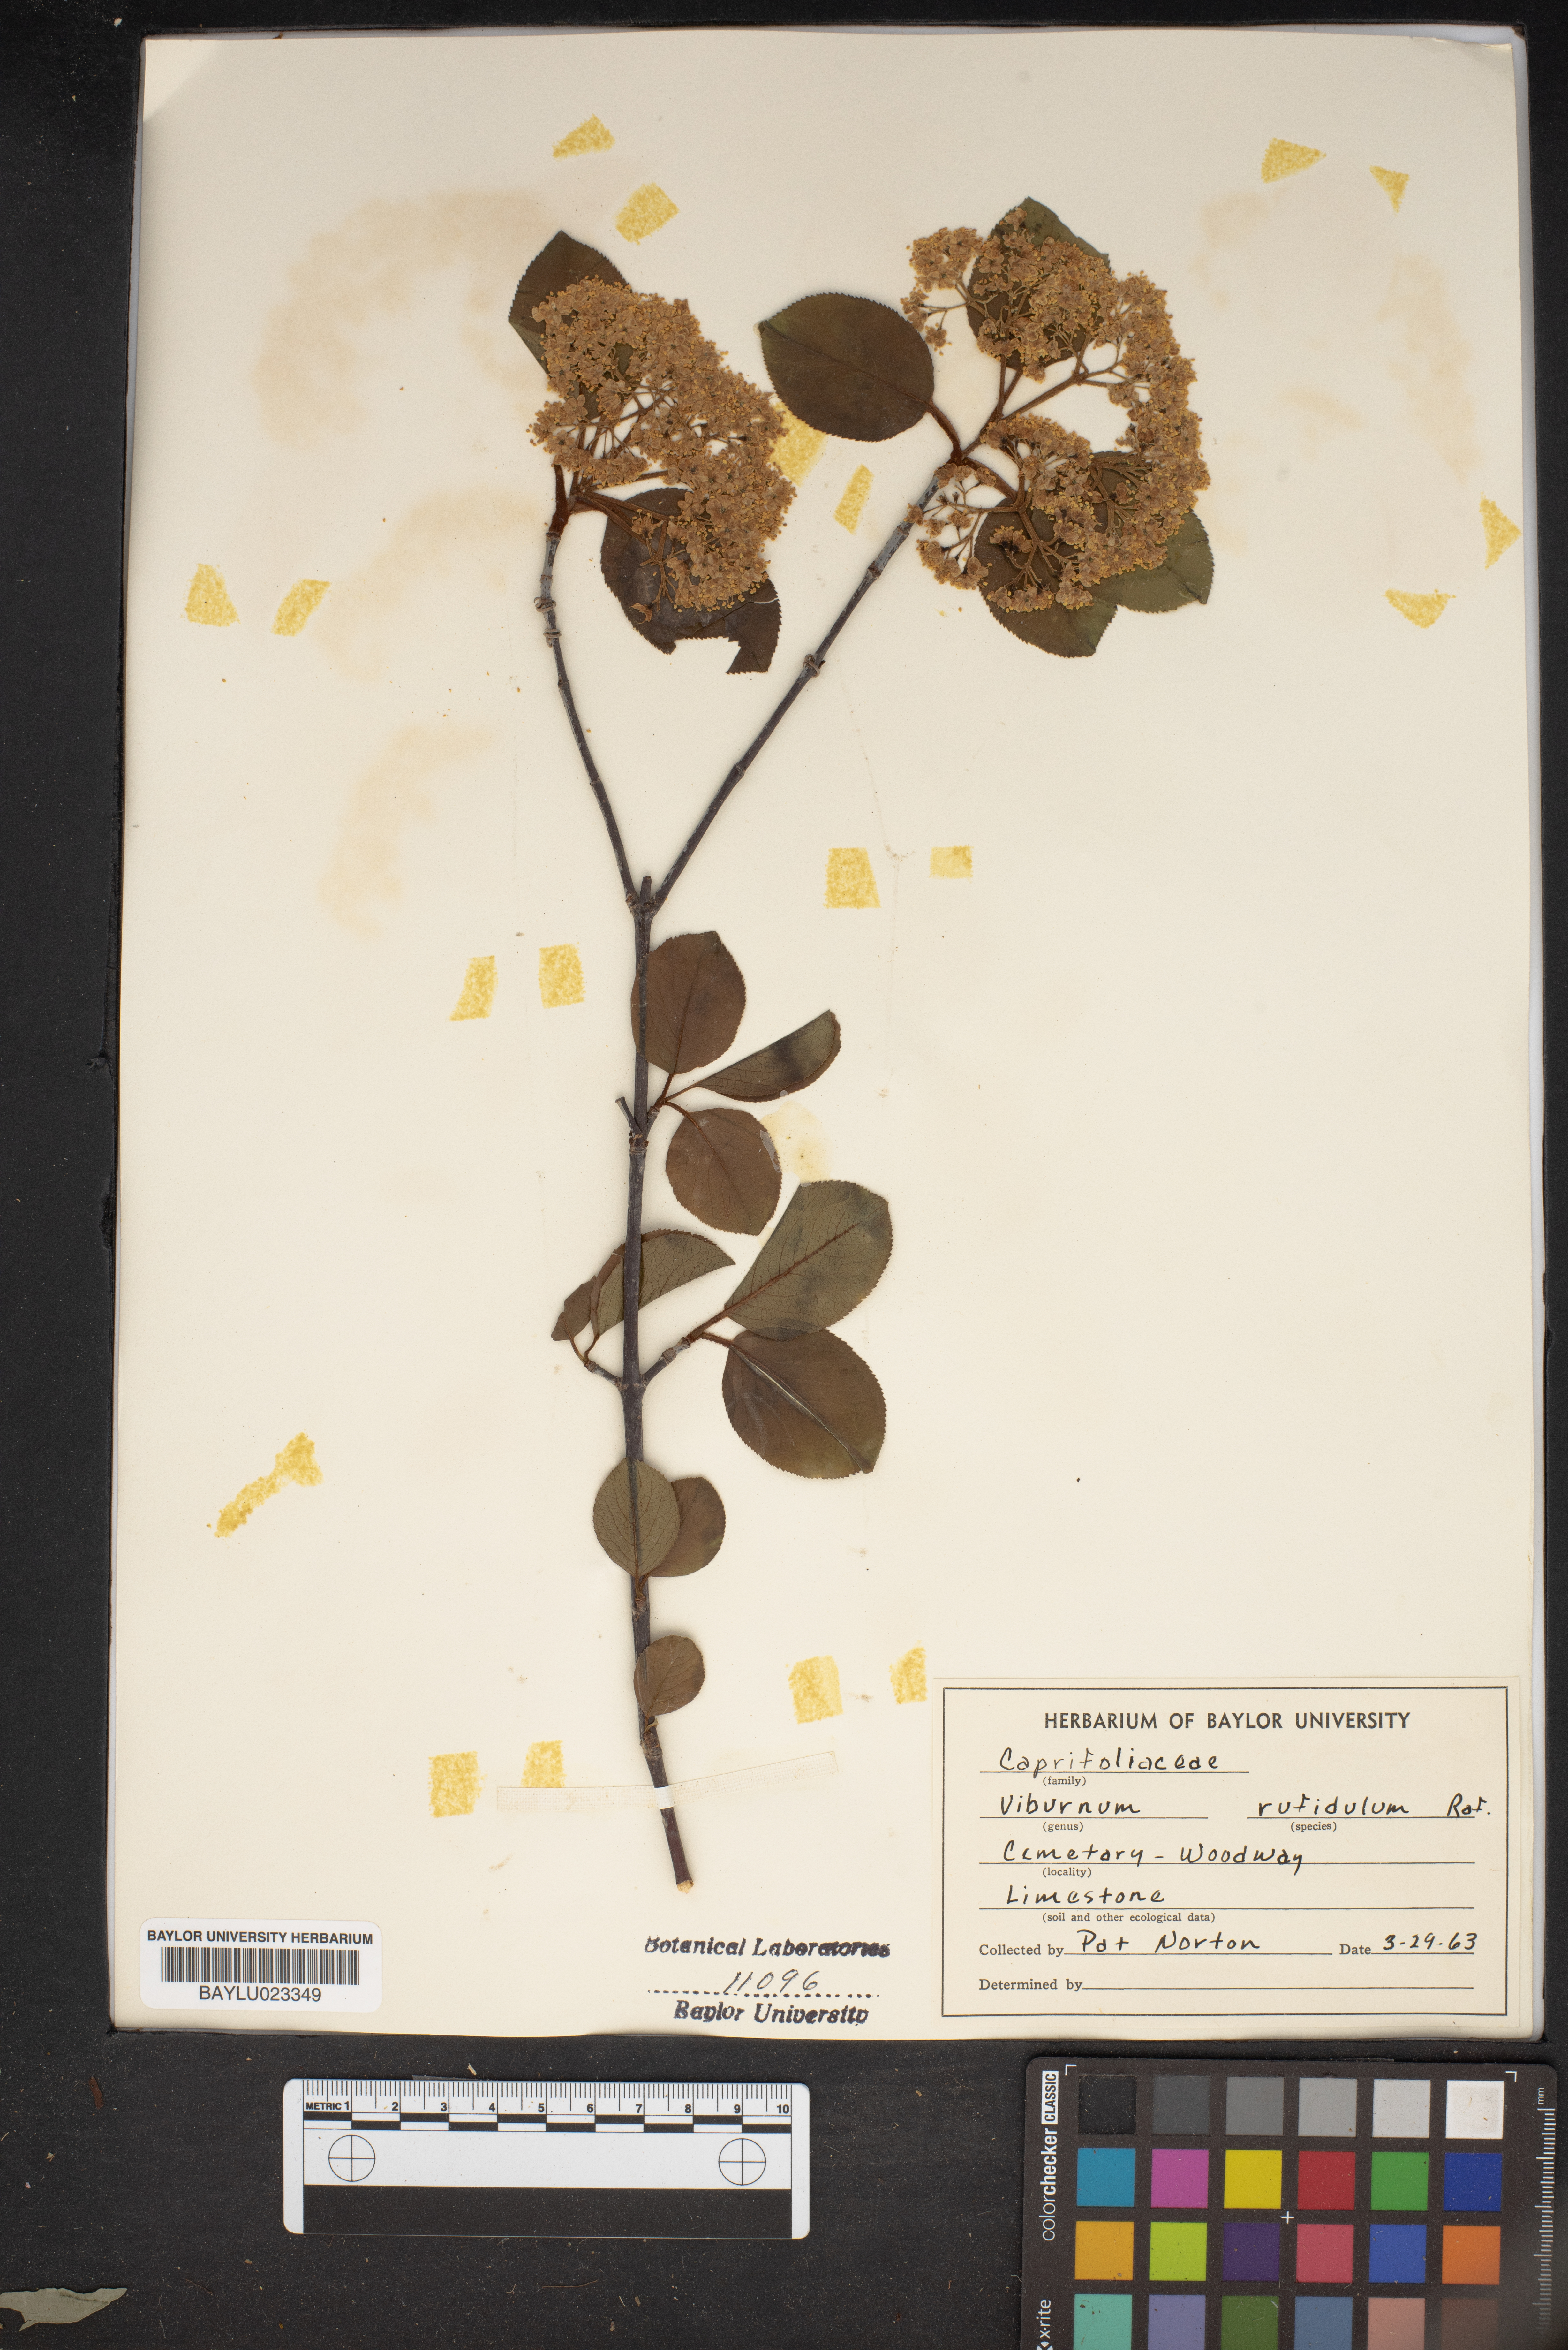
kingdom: Plantae
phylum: Tracheophyta
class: Magnoliopsida
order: Dipsacales
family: Viburnaceae
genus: Viburnum
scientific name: Viburnum rufidulum
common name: Blue haw
